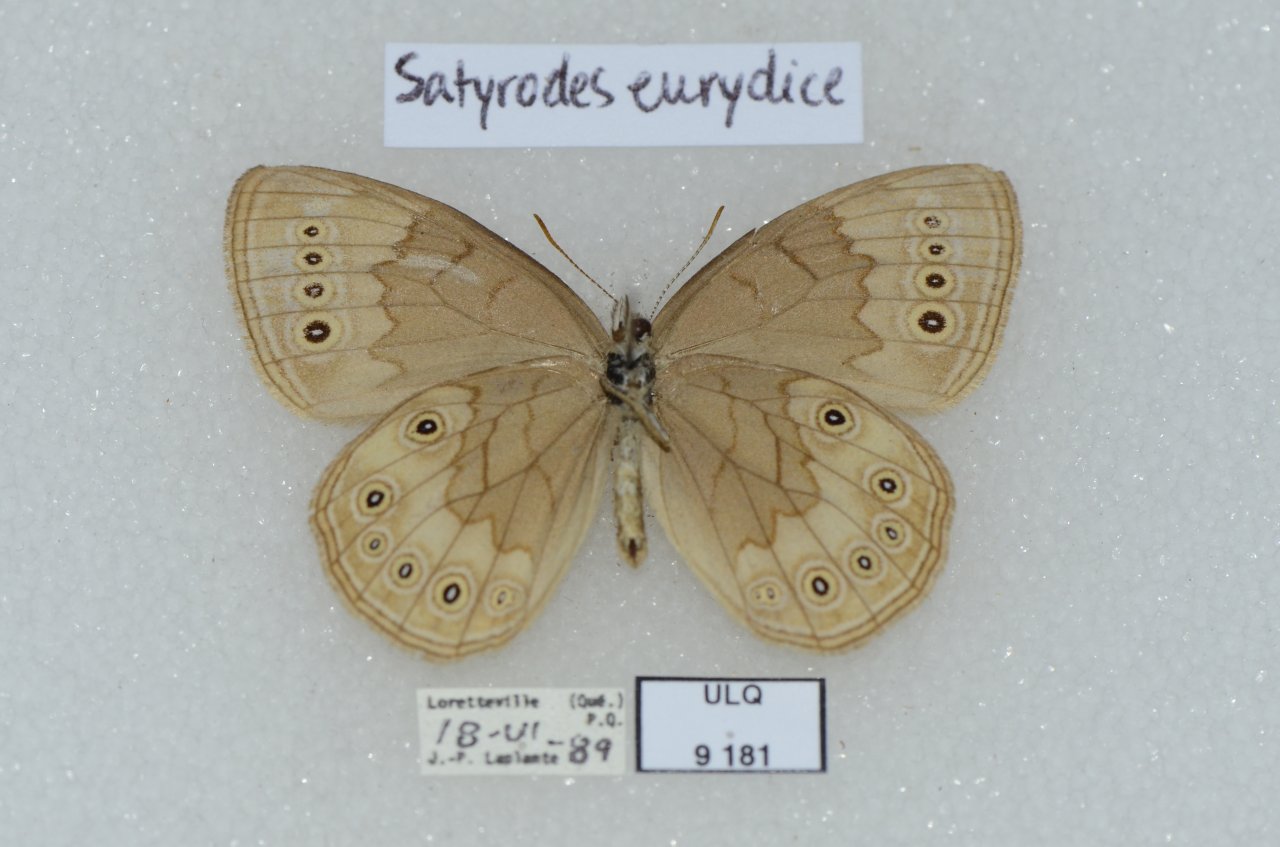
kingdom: Animalia
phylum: Arthropoda
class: Insecta
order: Lepidoptera
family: Nymphalidae
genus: Lethe
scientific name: Lethe eurydice
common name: Eyed Brown
